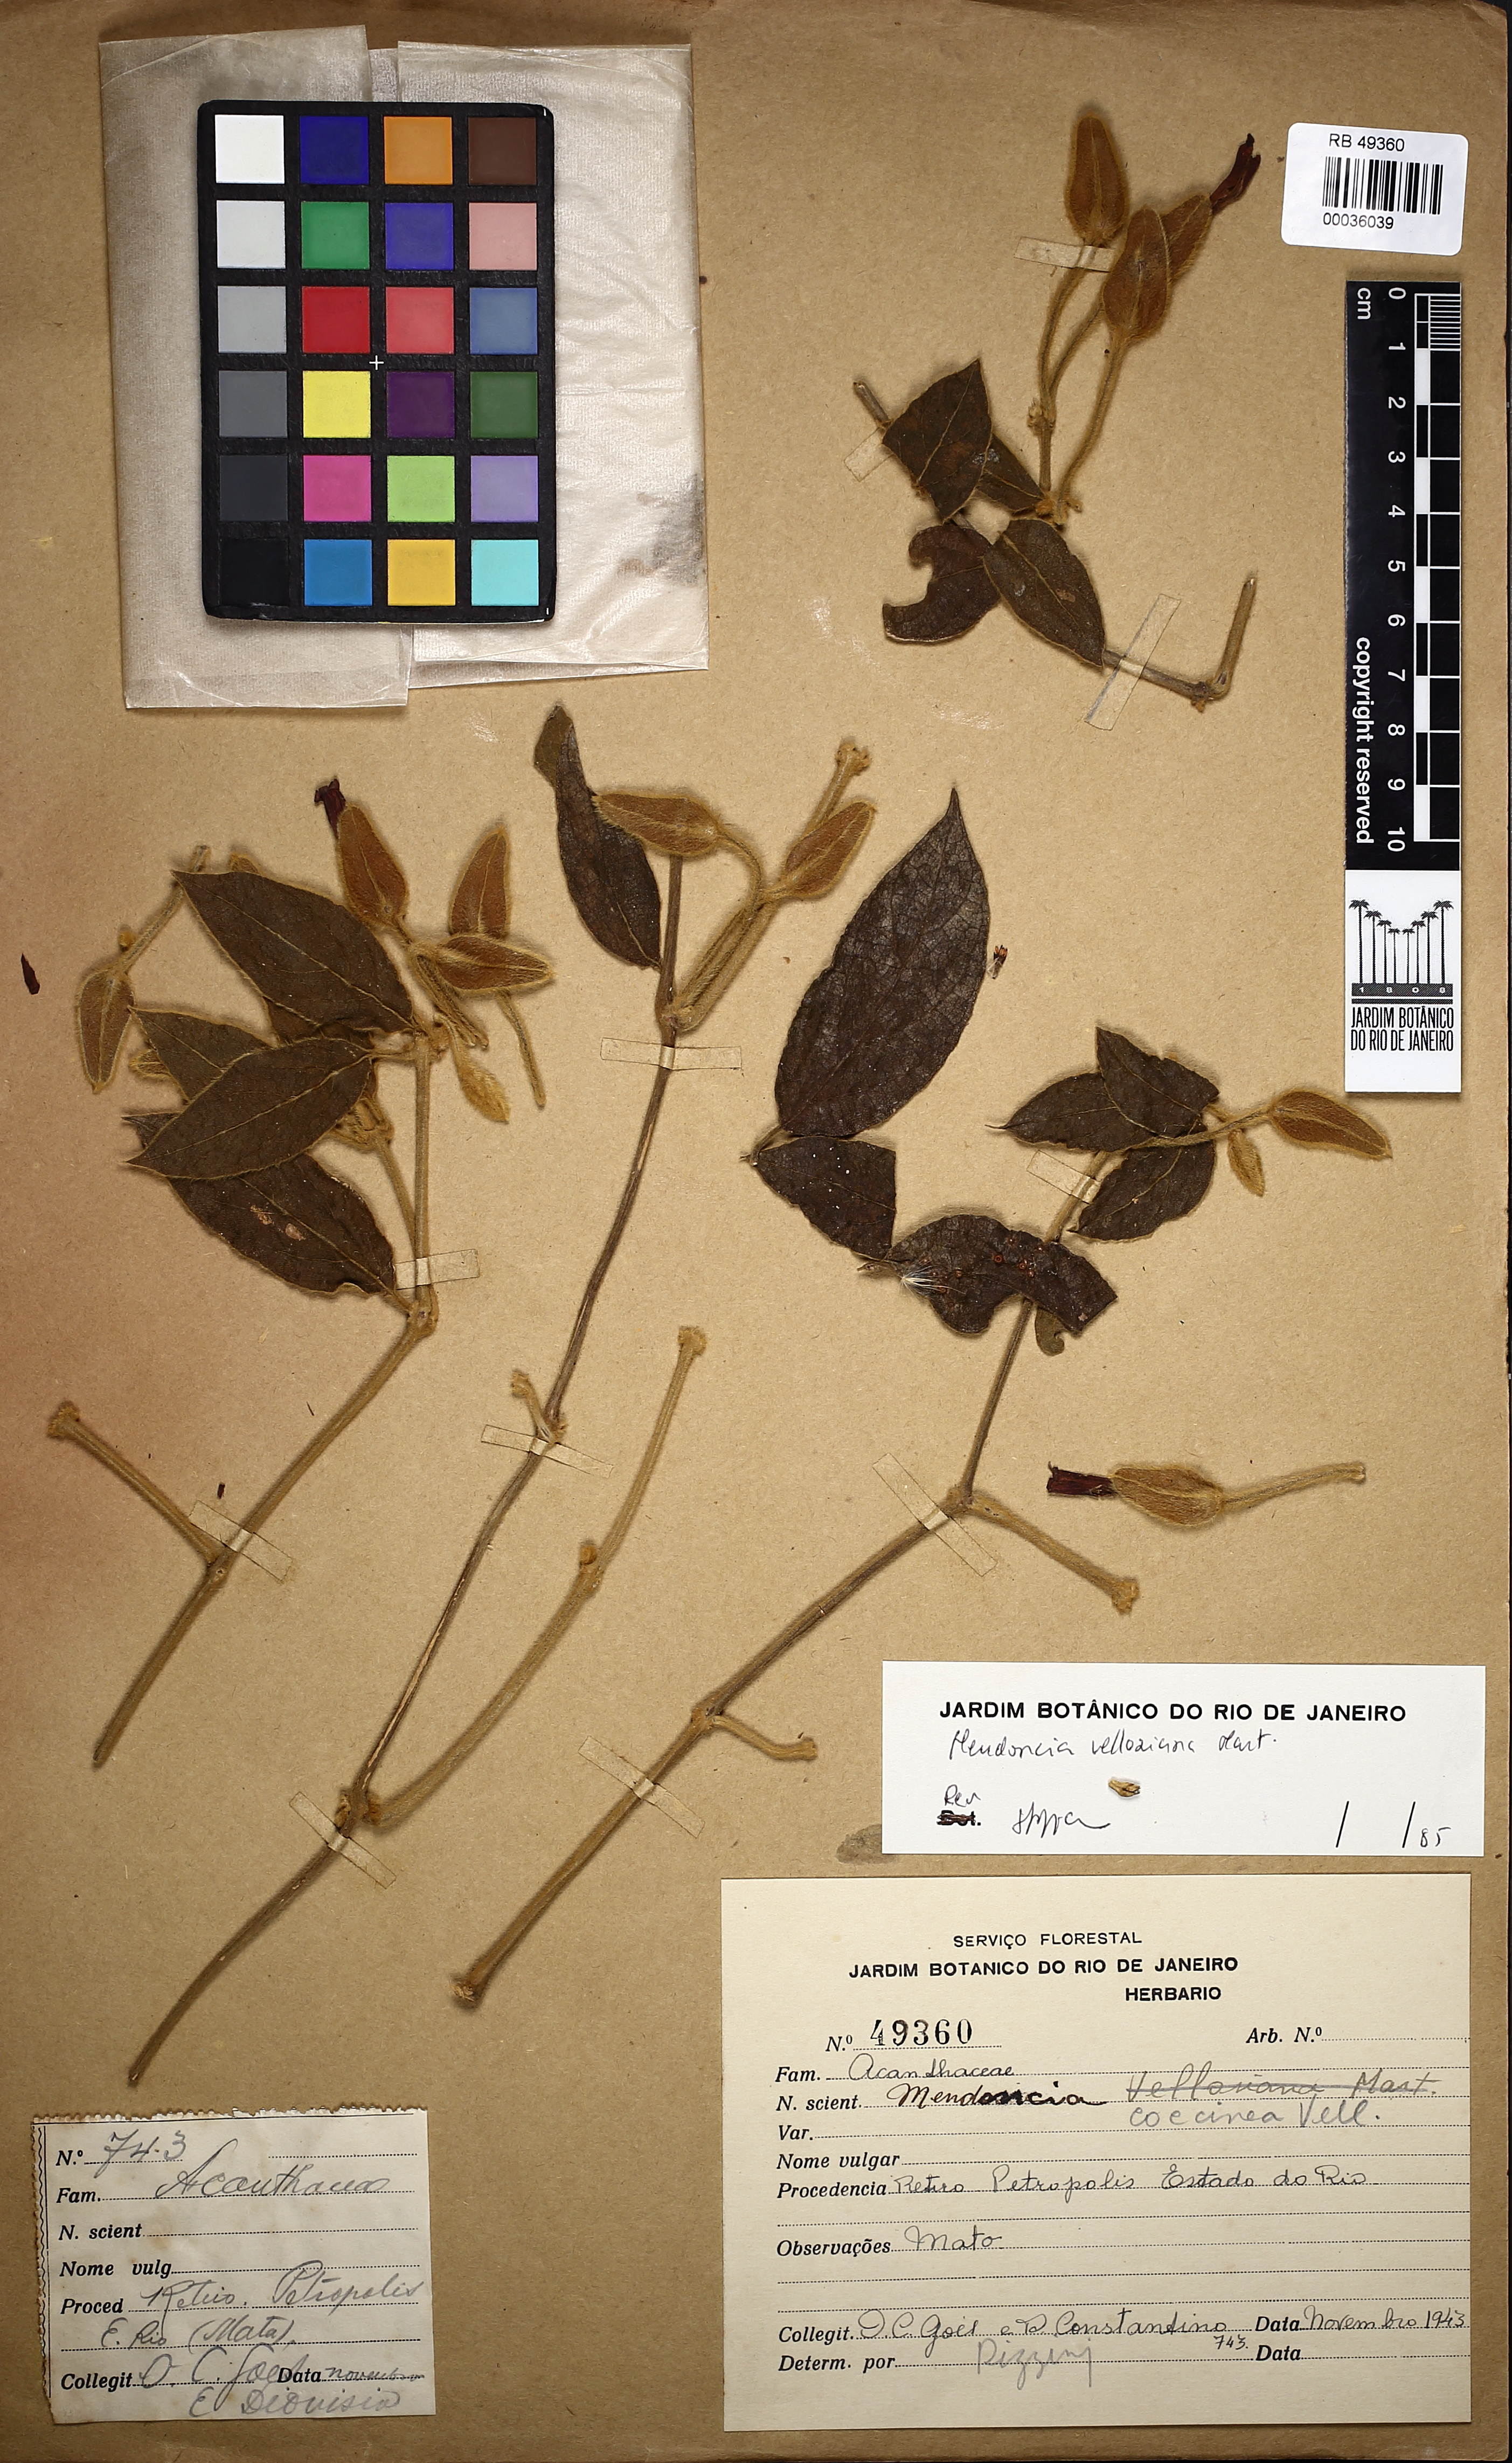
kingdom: Plantae
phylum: Tracheophyta
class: Magnoliopsida
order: Lamiales
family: Acanthaceae
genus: Mendoncia
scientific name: Mendoncia velloziana
